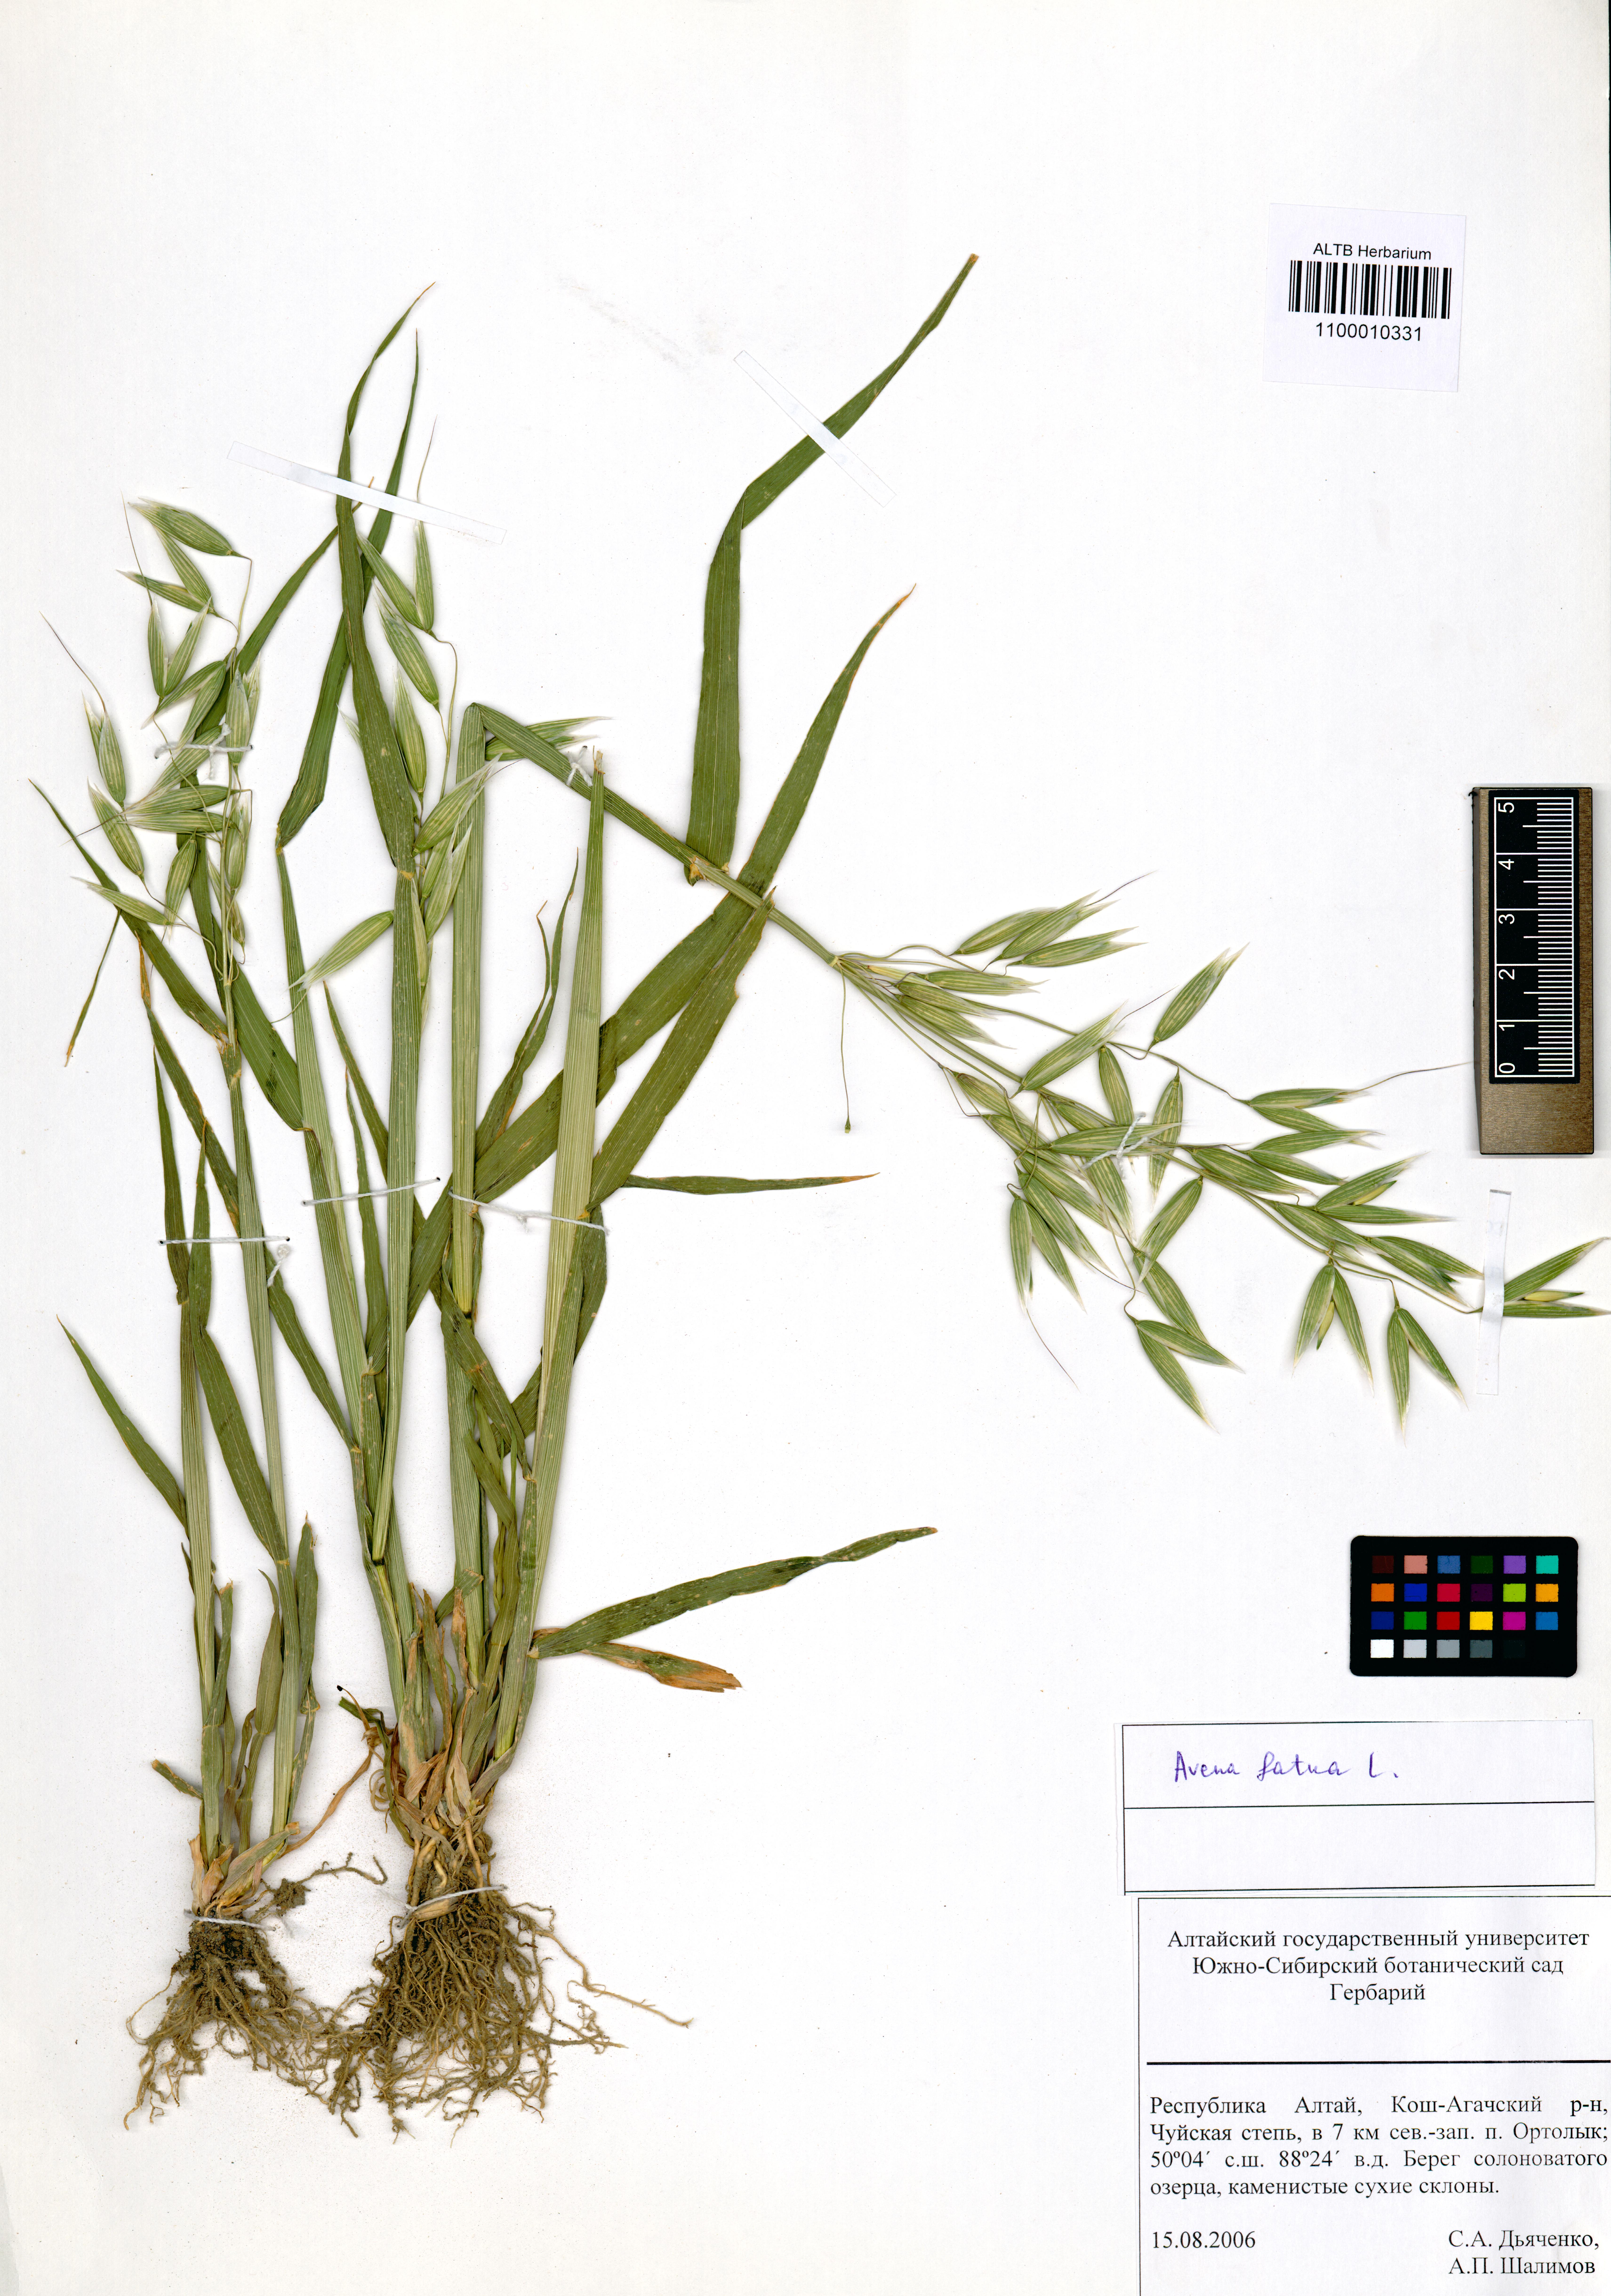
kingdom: Plantae
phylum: Tracheophyta
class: Liliopsida
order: Poales
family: Poaceae
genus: Avena
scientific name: Avena fatua
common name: Wild oat
